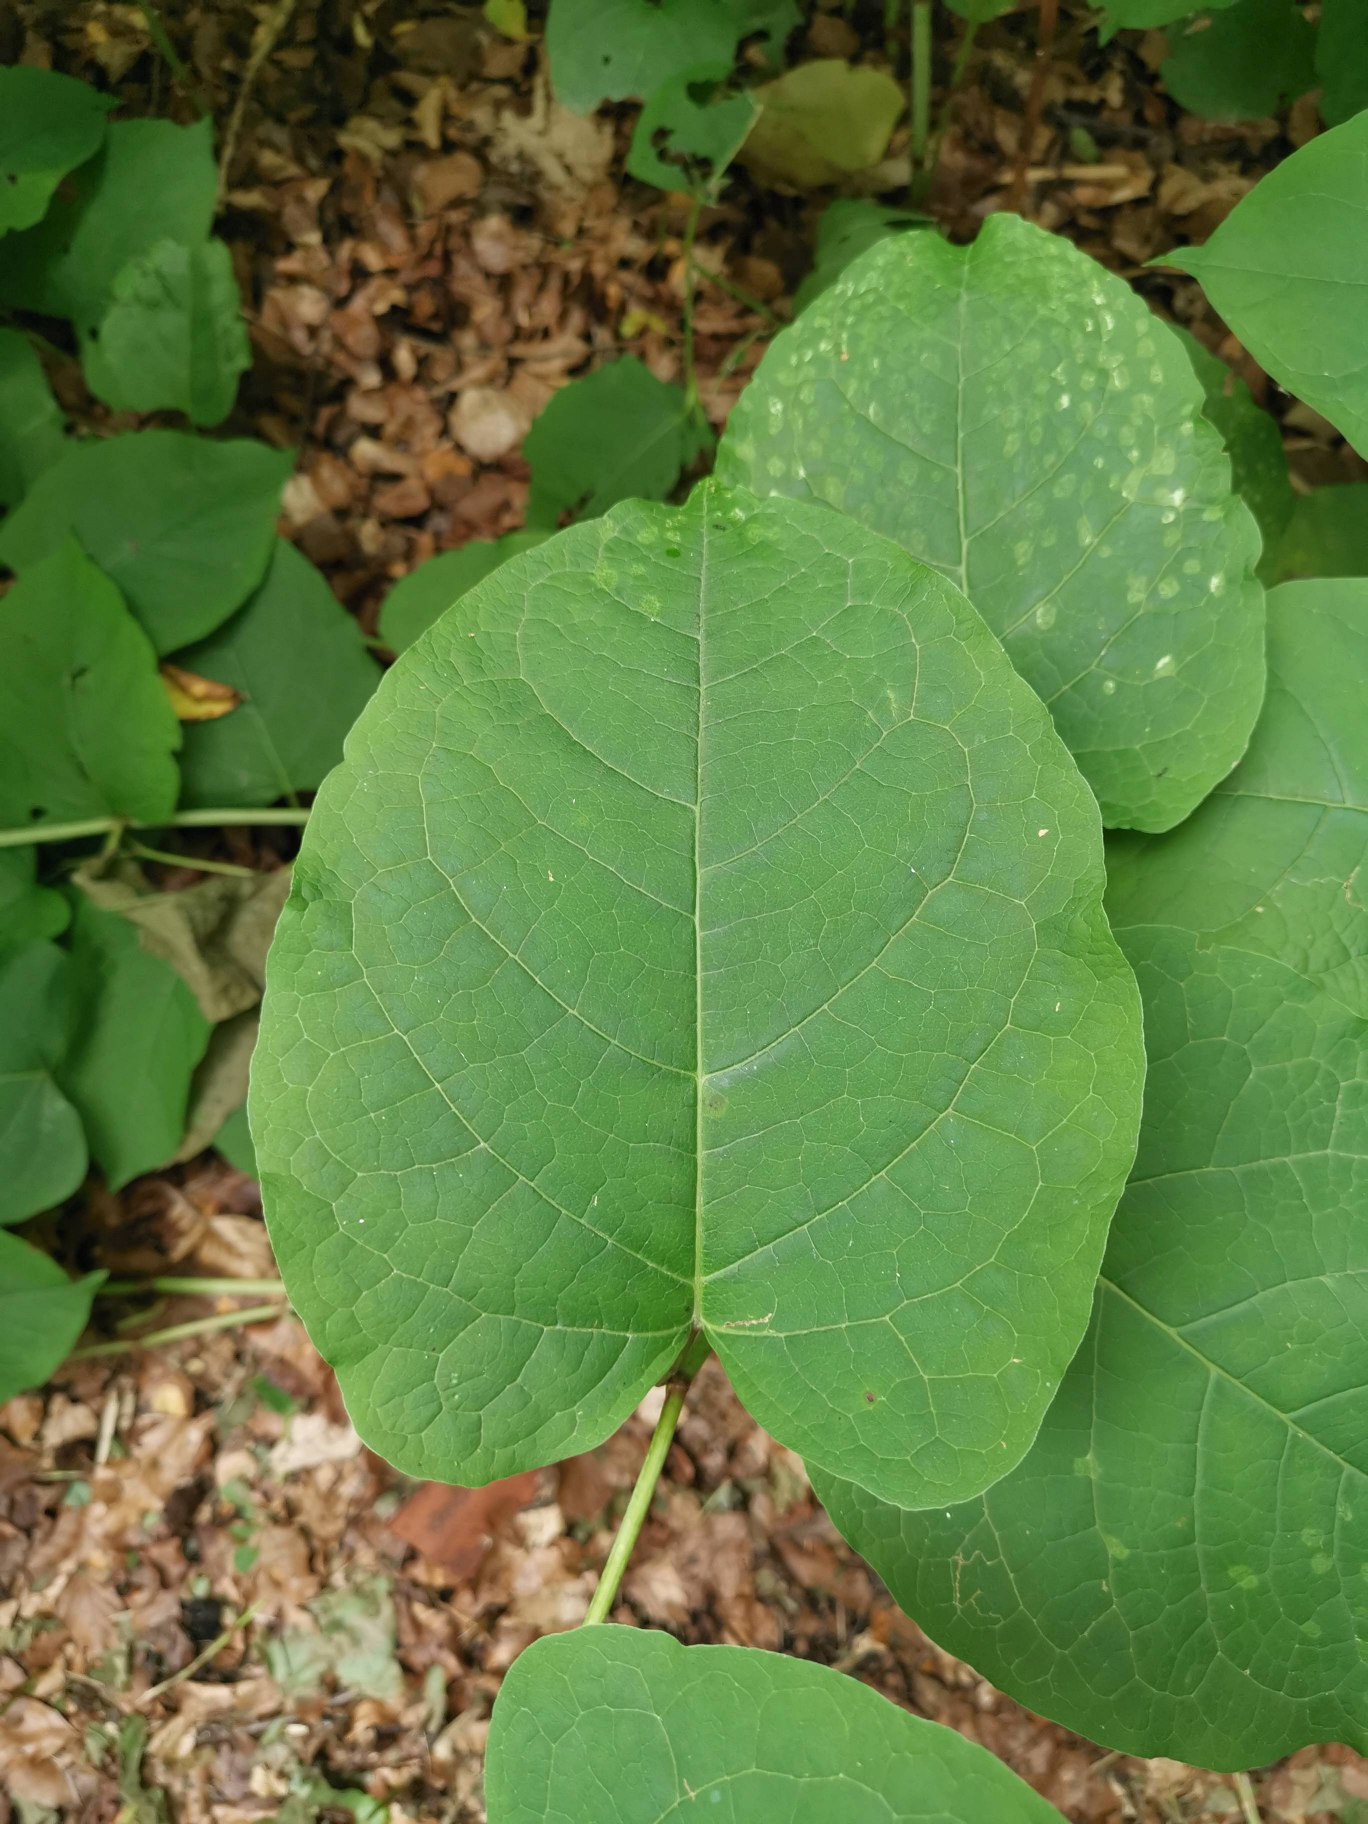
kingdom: Plantae
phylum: Tracheophyta
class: Magnoliopsida
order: Caryophyllales
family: Polygonaceae
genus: Reynoutria
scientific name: Reynoutria sachalinensis
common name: Kæmpe-pileurt
